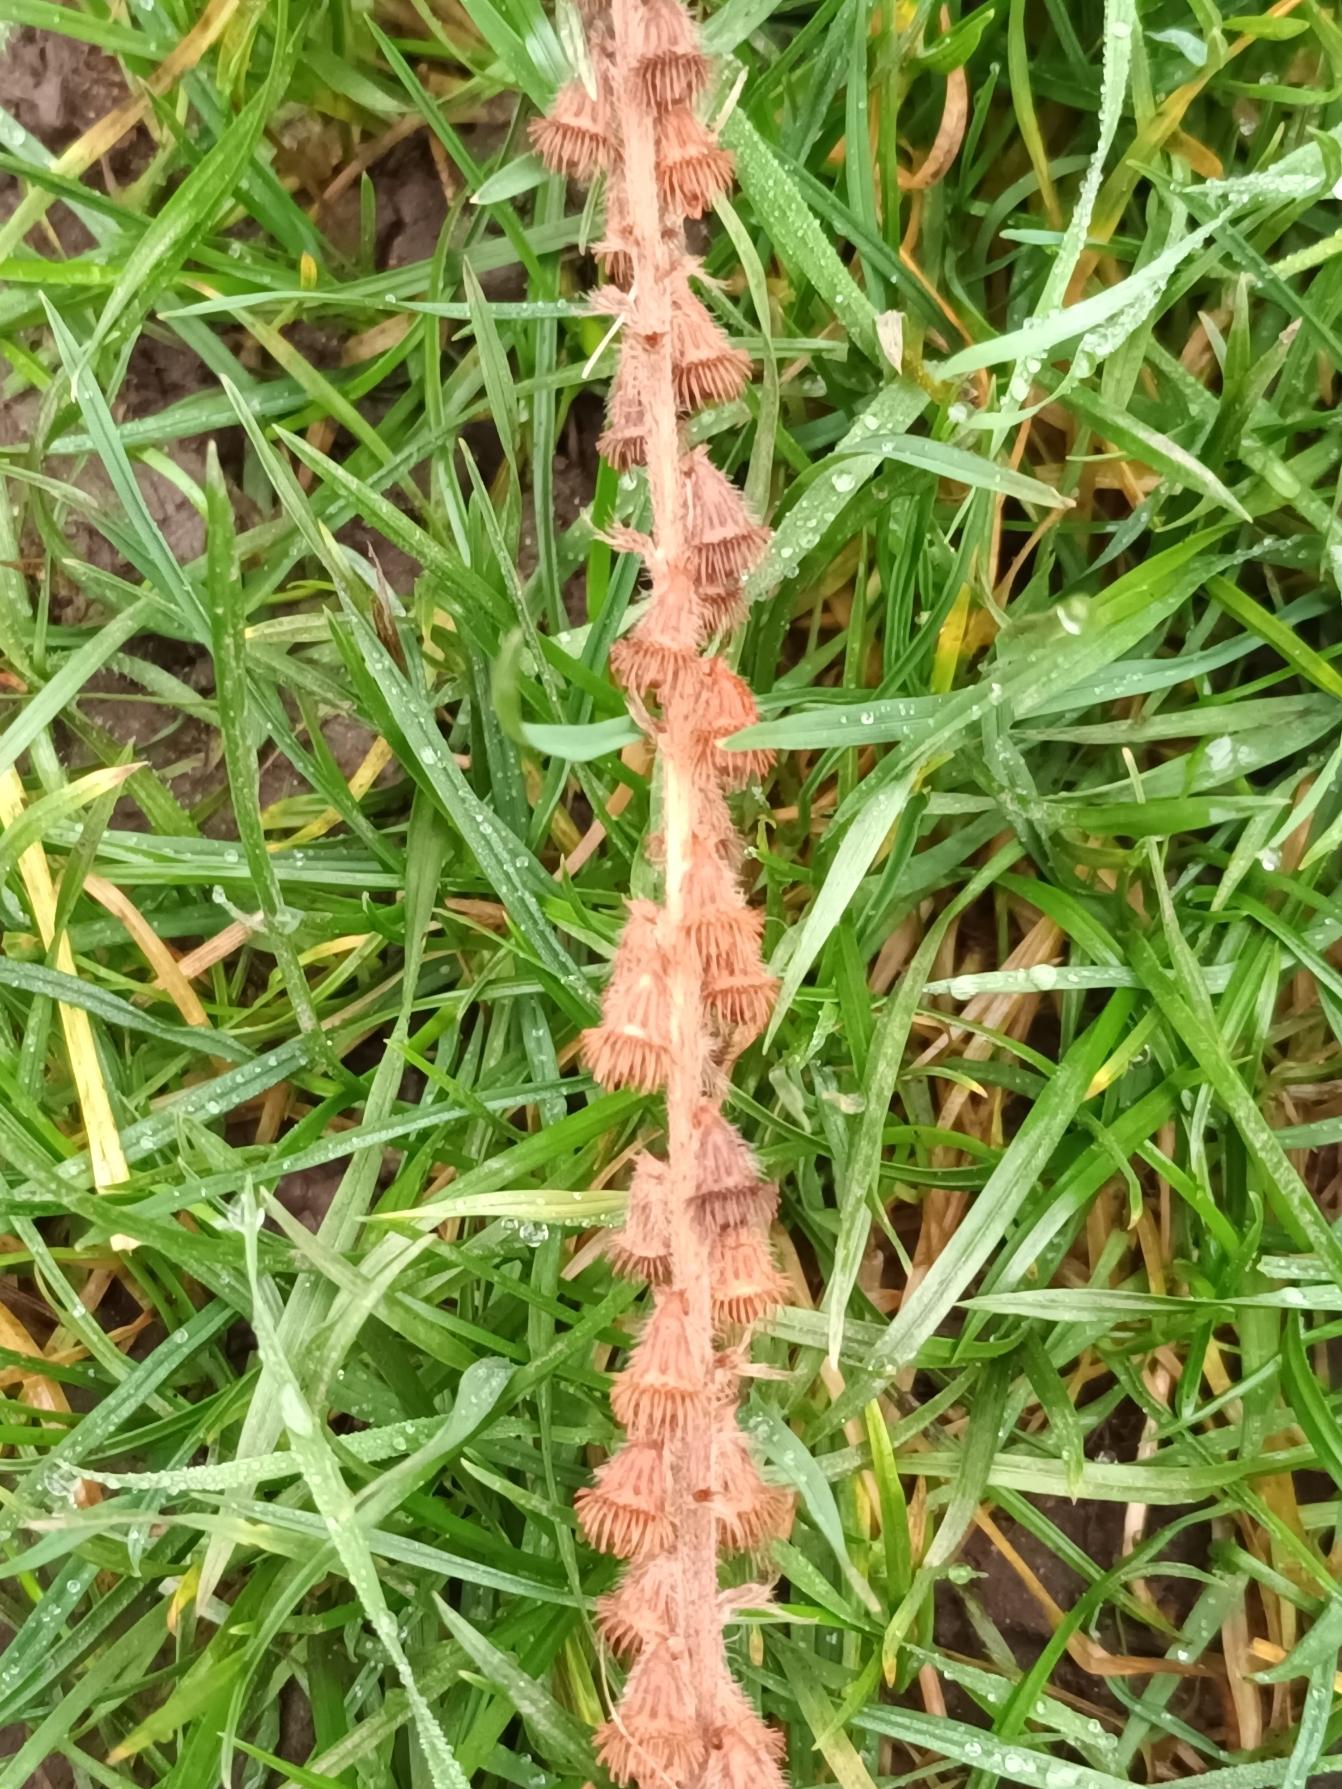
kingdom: Plantae
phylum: Tracheophyta
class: Magnoliopsida
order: Rosales
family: Rosaceae
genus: Agrimonia
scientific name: Agrimonia eupatoria
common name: Almindelig agermåne
